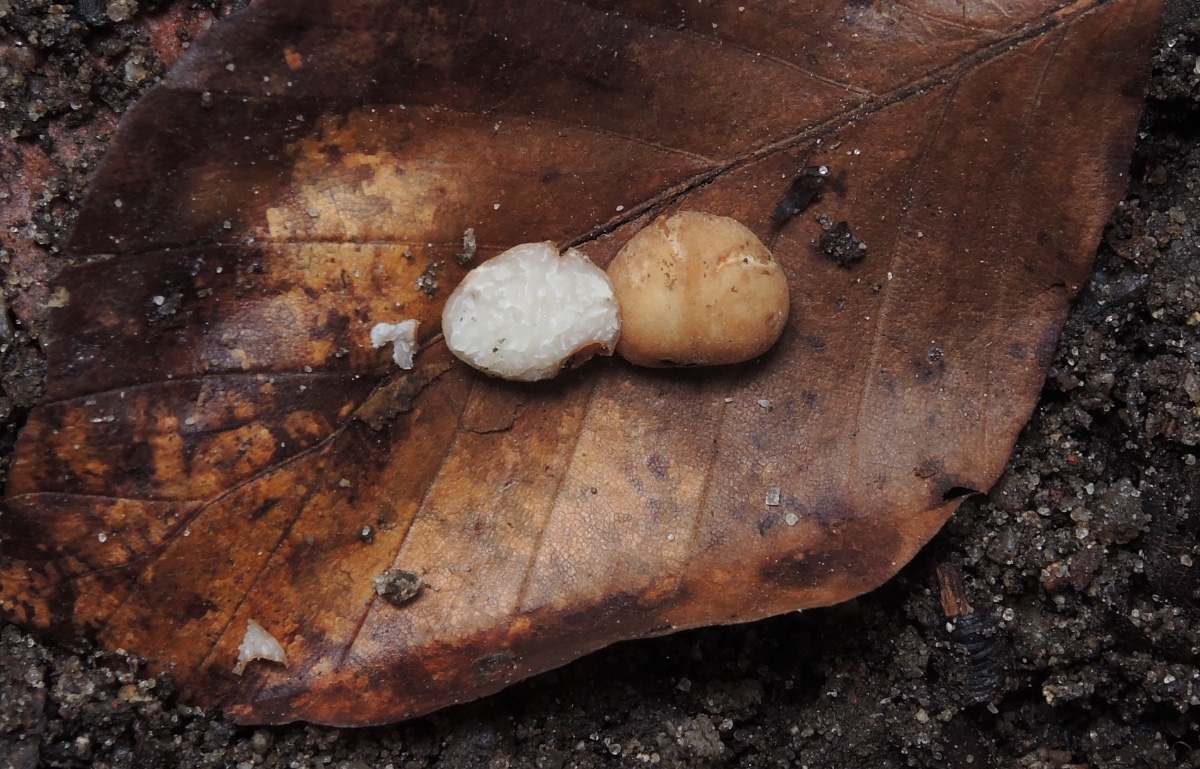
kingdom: Fungi
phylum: Ascomycota
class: Pezizomycetes
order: Pezizales
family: Tuberaceae
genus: Tuber
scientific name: Tuber
